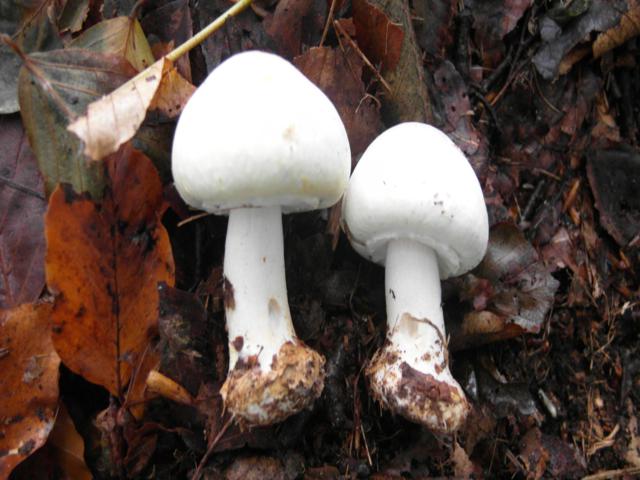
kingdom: Fungi
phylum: Basidiomycota
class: Agaricomycetes
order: Agaricales
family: Agaricaceae
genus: Agaricus
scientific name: Agaricus sylvicola
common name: skiveknoldet champignon
